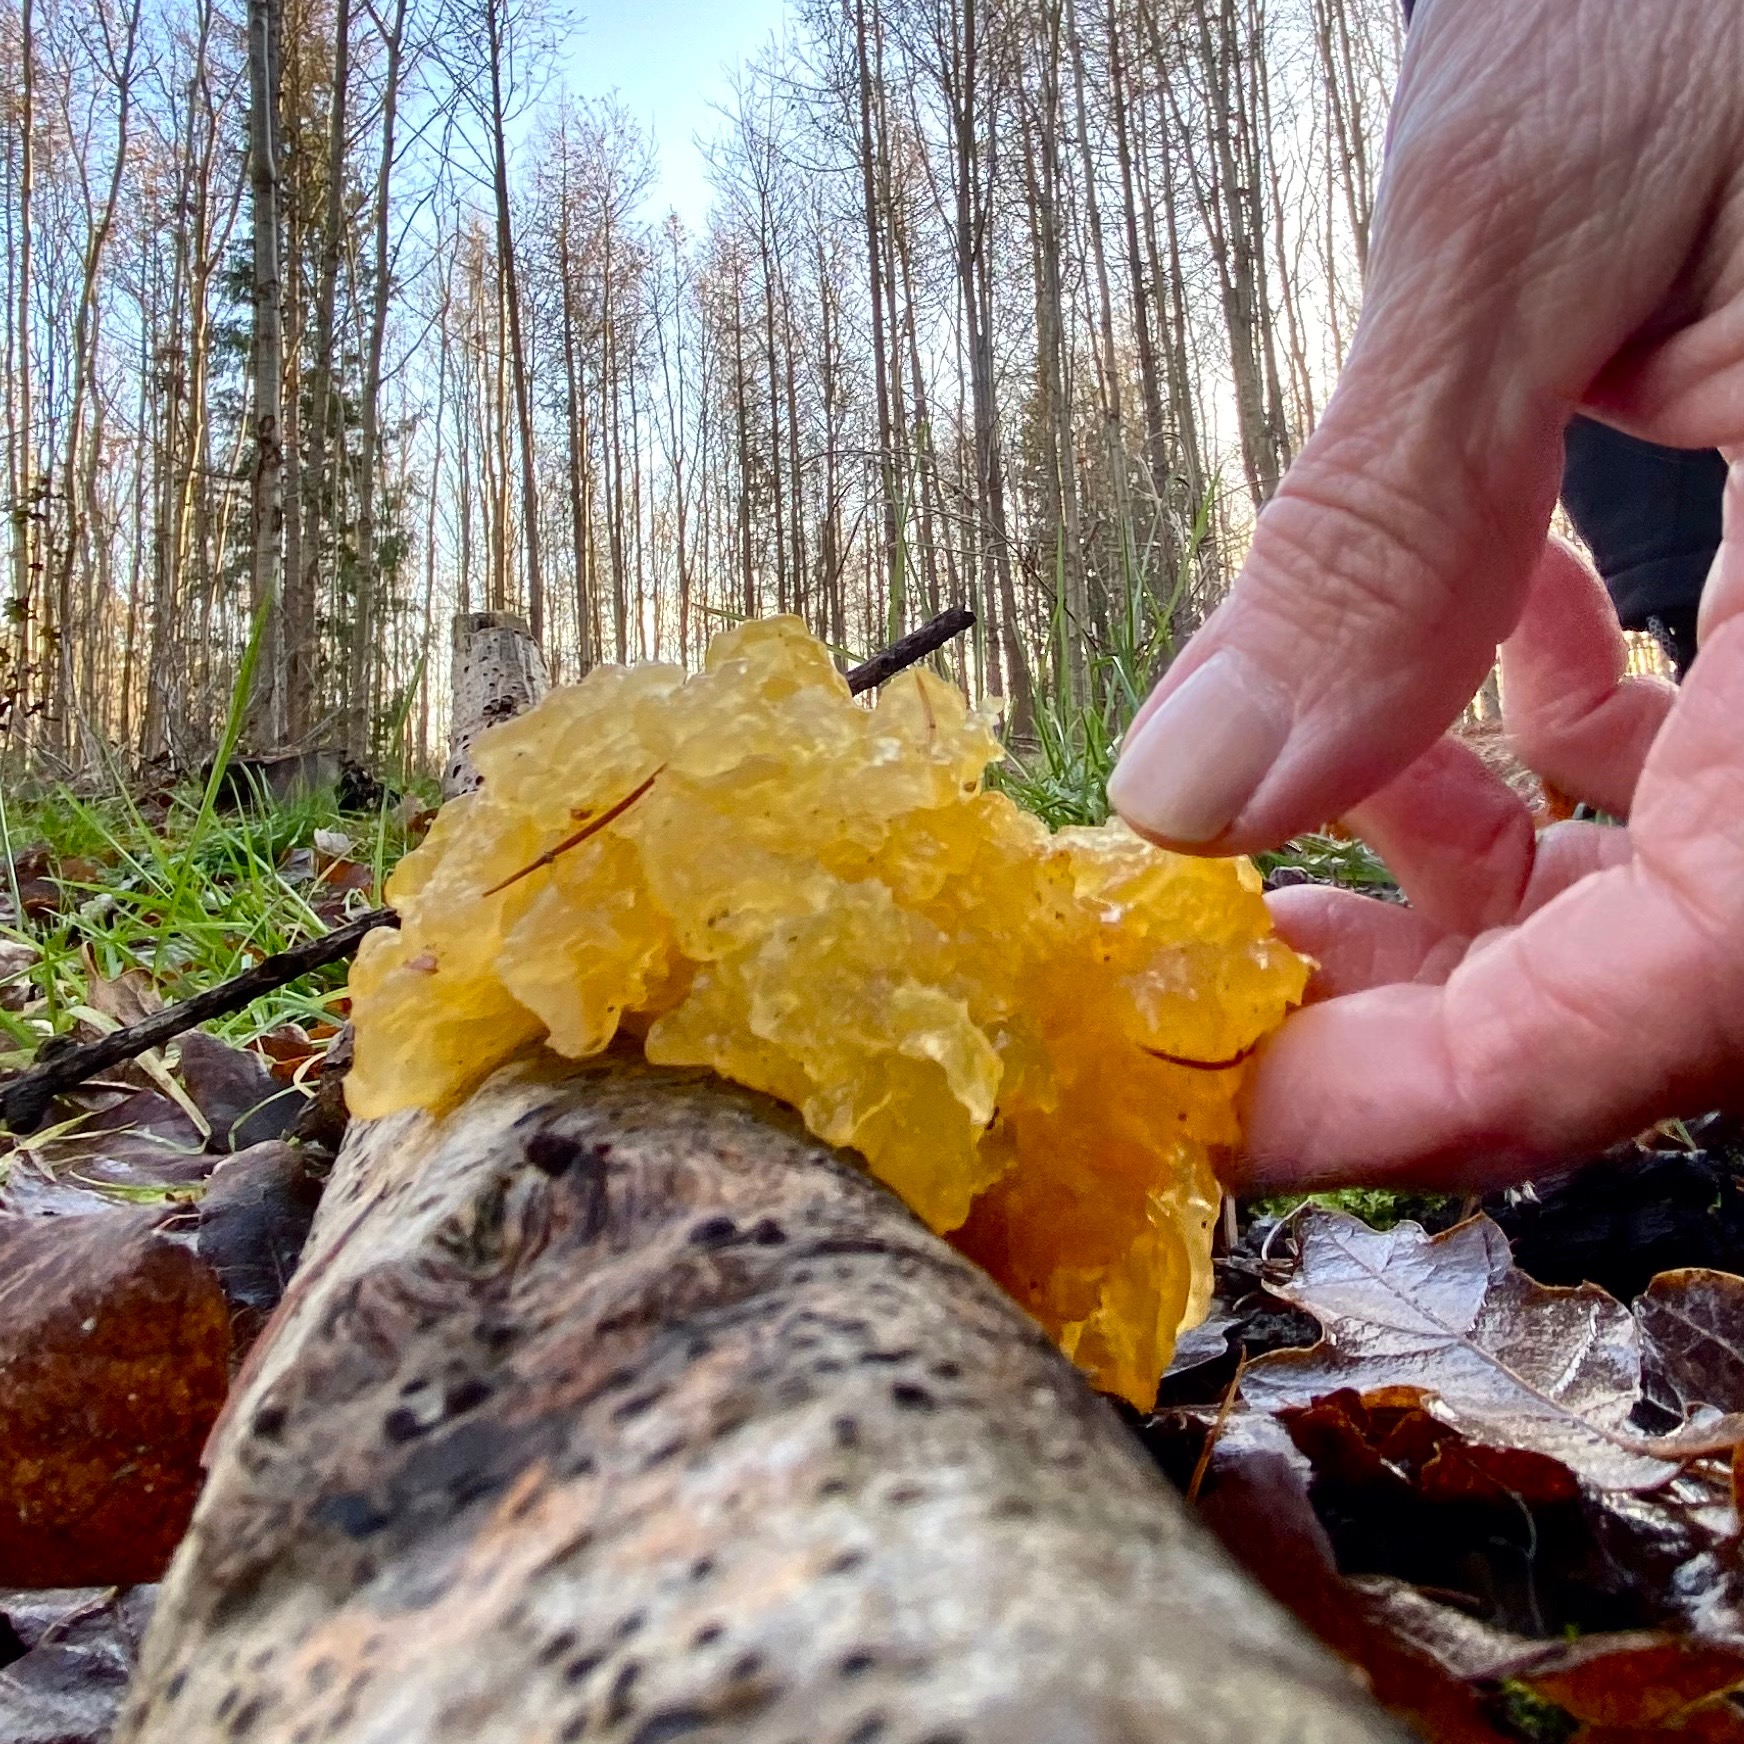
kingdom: Fungi
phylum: Basidiomycota
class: Tremellomycetes
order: Tremellales
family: Tremellaceae
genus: Tremella
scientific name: Tremella mesenterica
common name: Gul bævresvamp
